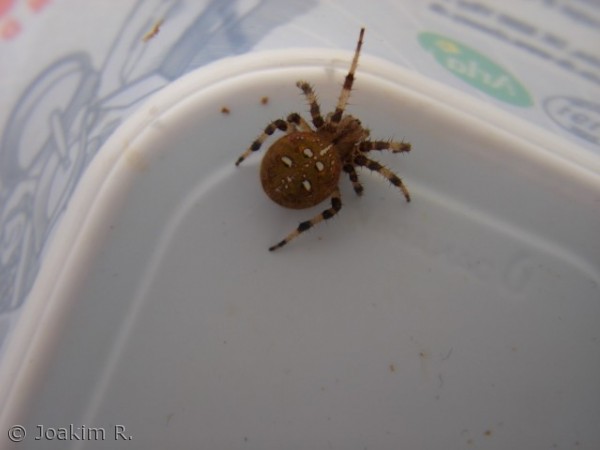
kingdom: Animalia
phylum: Arthropoda
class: Arachnida
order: Araneae
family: Araneidae
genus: Araneus
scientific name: Araneus quadratus
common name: Kvadratedderkop
